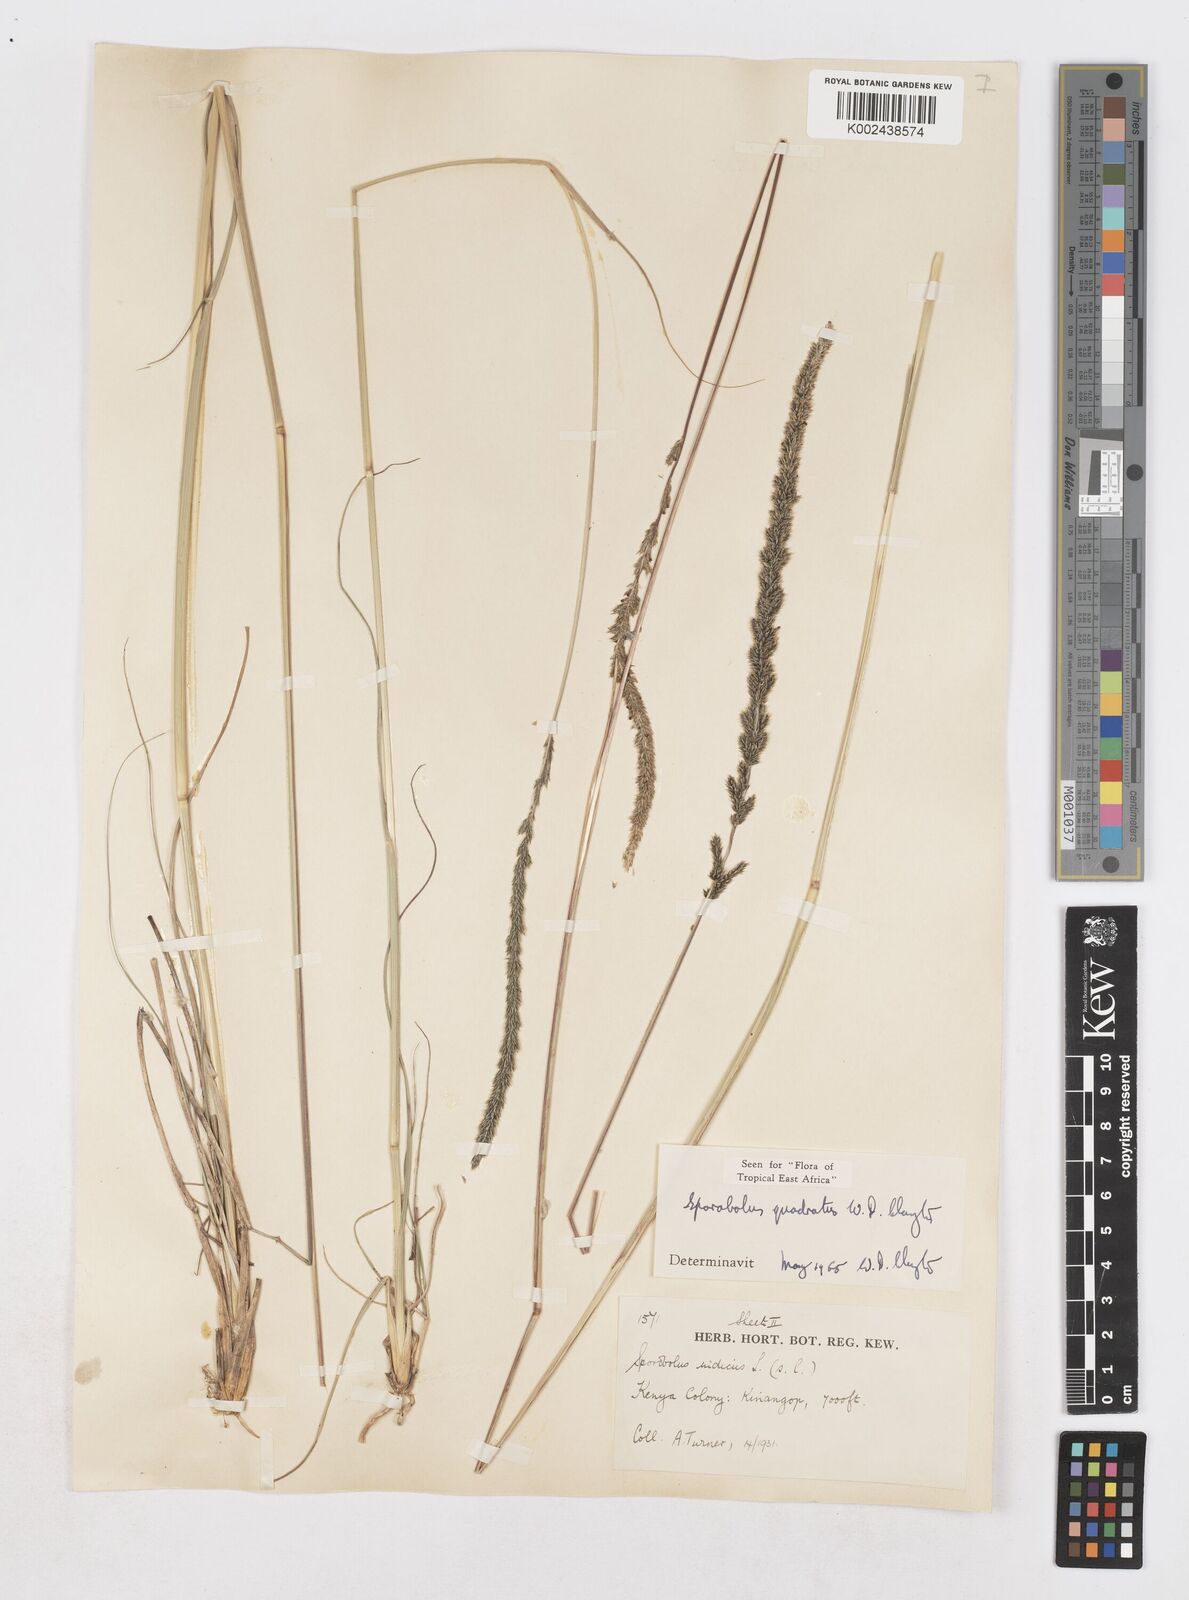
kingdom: Plantae
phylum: Tracheophyta
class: Liliopsida
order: Poales
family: Poaceae
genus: Sporobolus
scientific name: Sporobolus quadratus
